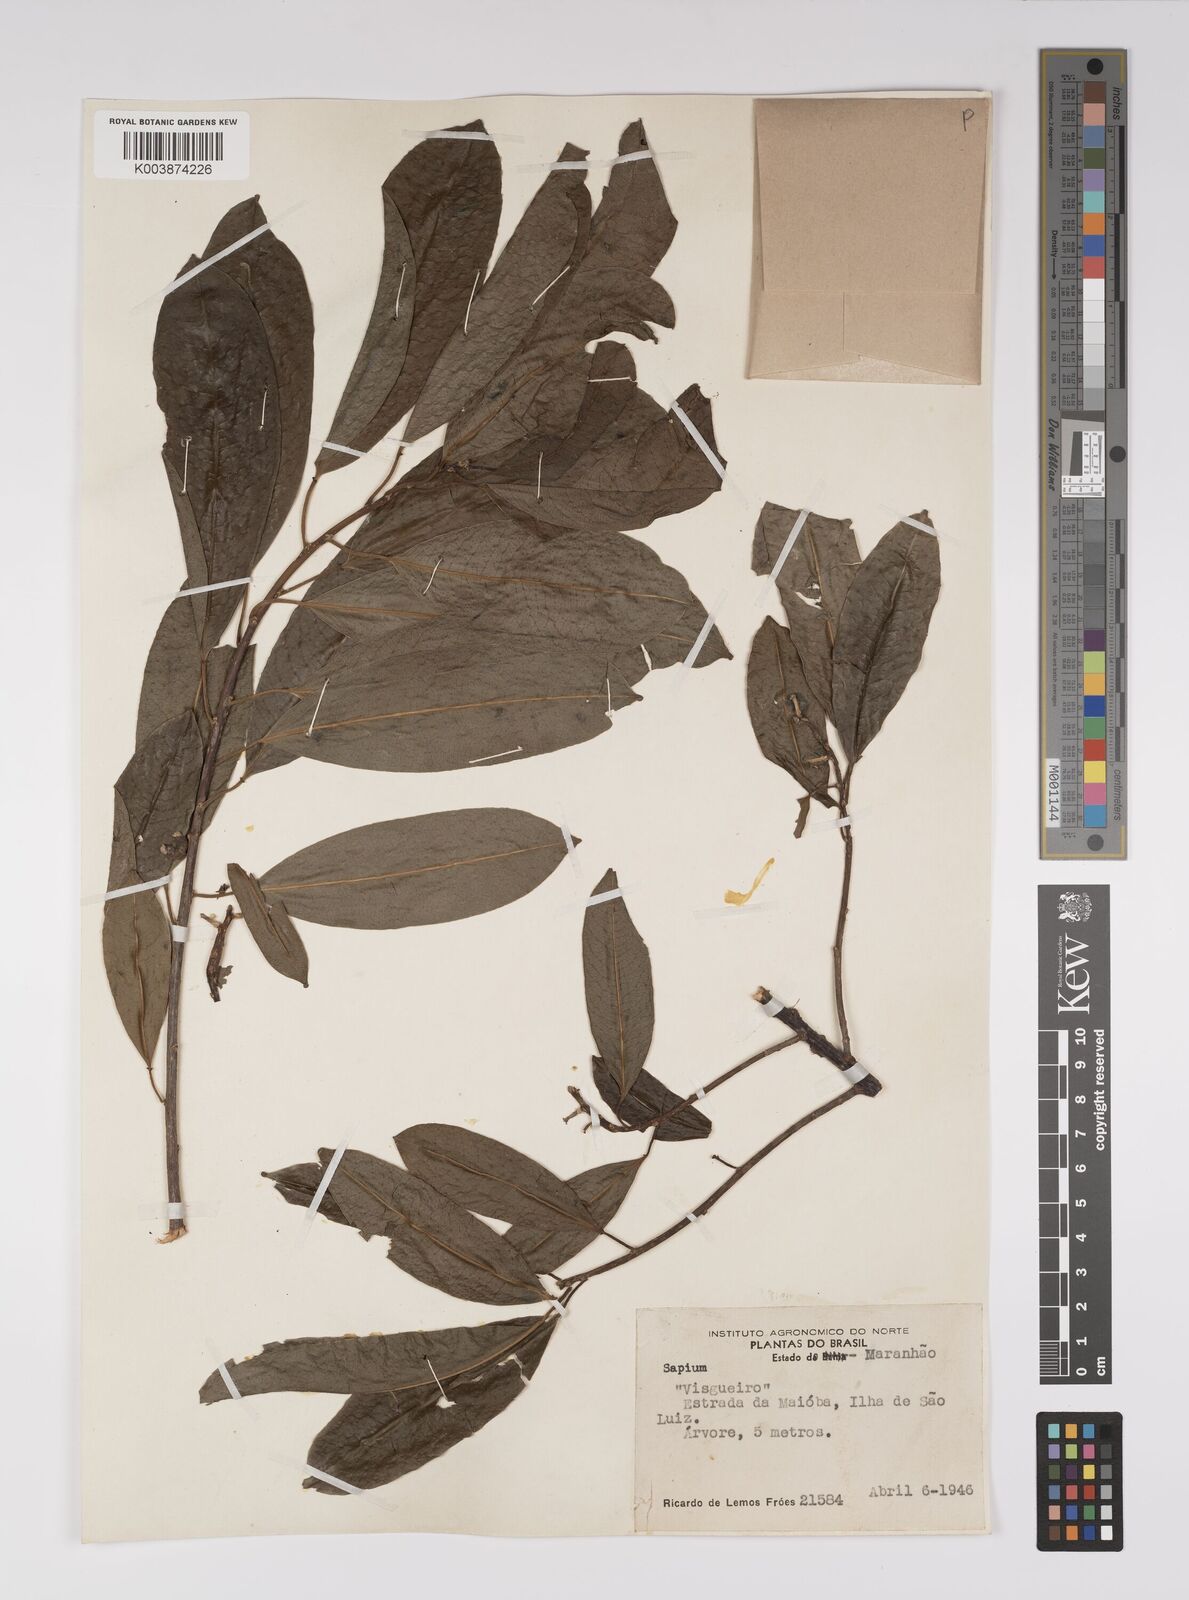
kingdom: Plantae
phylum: Tracheophyta
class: Magnoliopsida
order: Malpighiales
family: Euphorbiaceae
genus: Sapium
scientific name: Sapium
